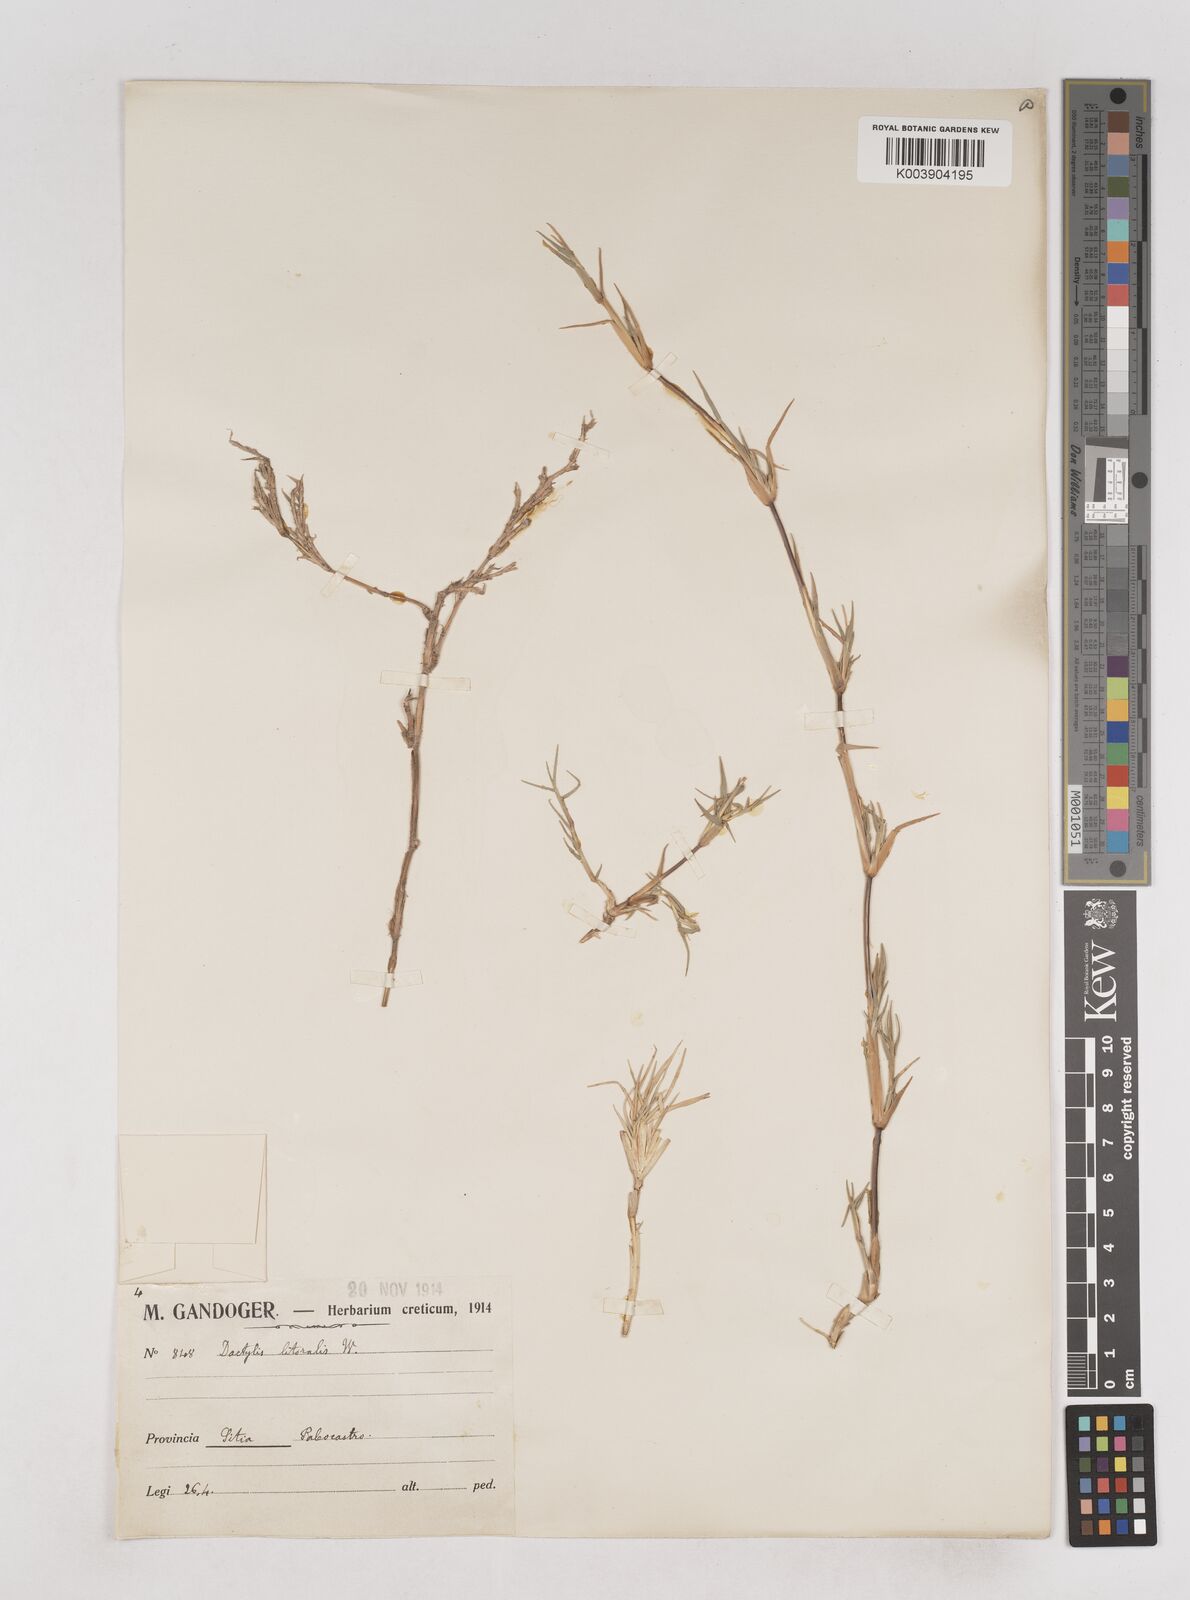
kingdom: Plantae
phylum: Tracheophyta
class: Liliopsida
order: Poales
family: Poaceae
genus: Aeluropus
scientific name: Aeluropus littoralis
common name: Indian walnut
